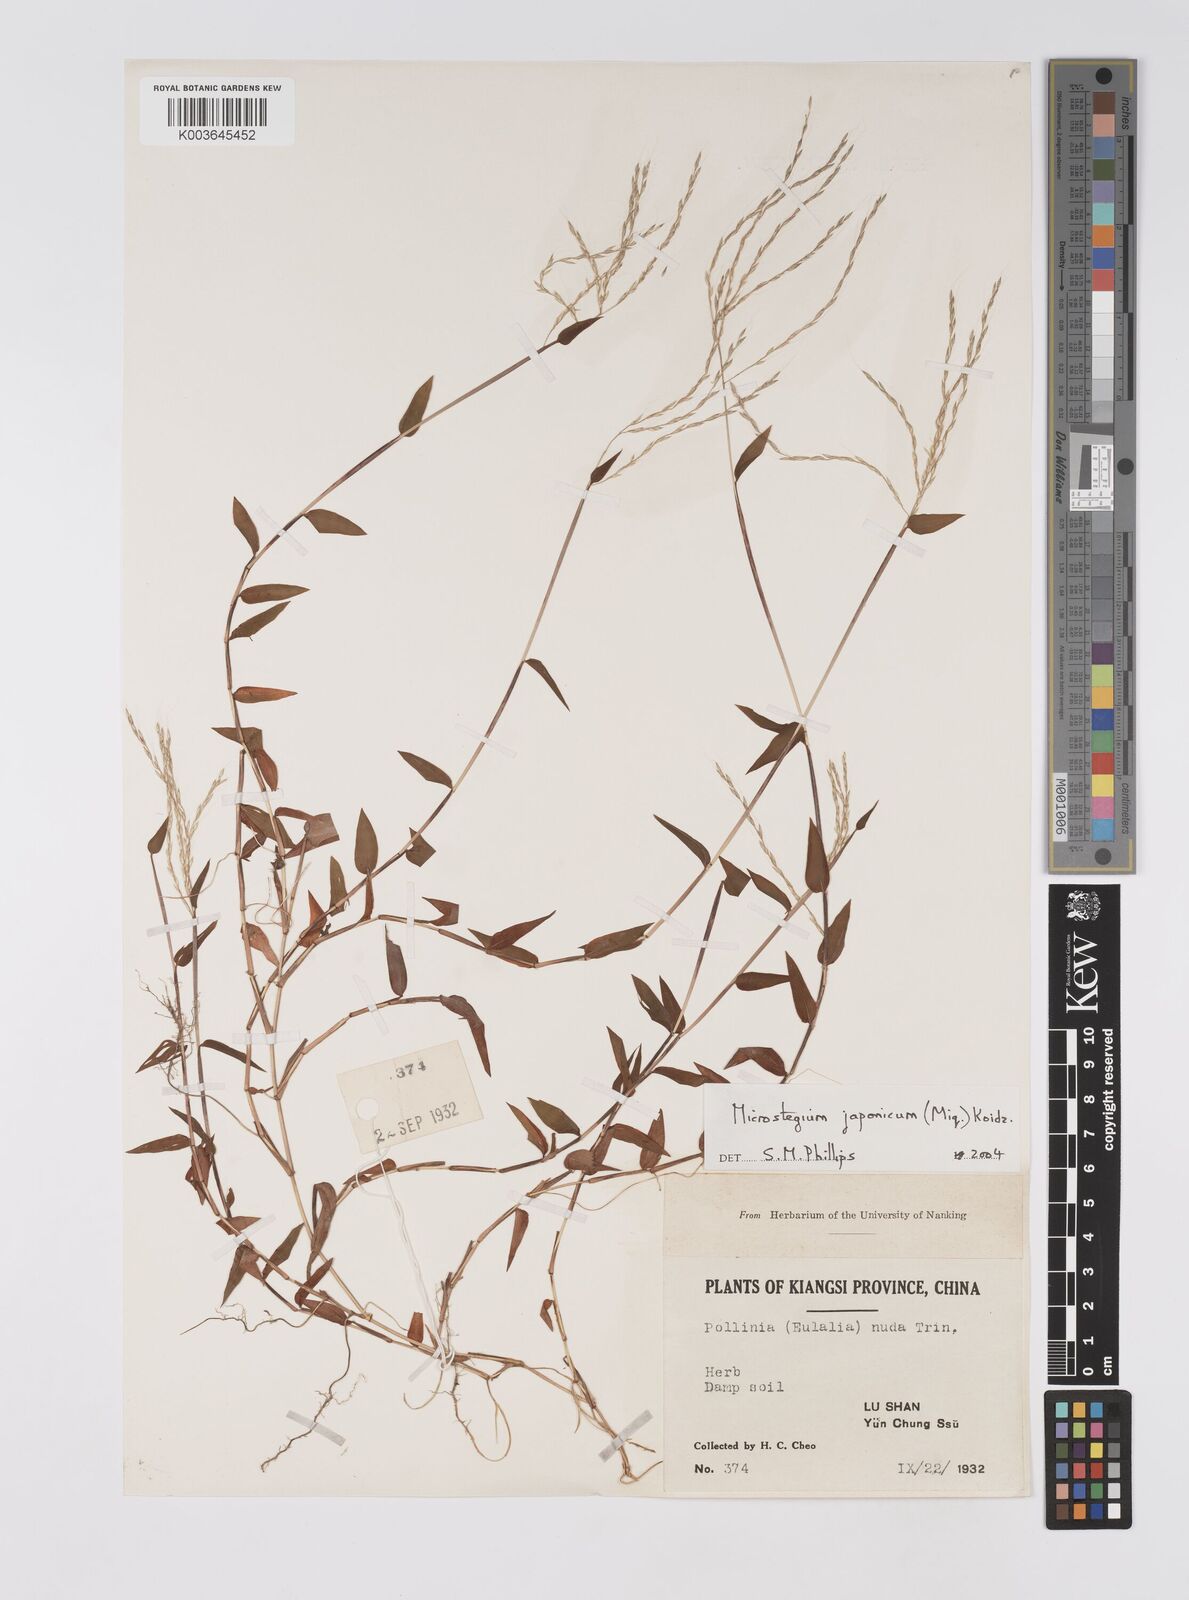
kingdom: Plantae
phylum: Tracheophyta
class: Liliopsida
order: Poales
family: Poaceae
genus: Microstegium
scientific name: Microstegium japonicum
